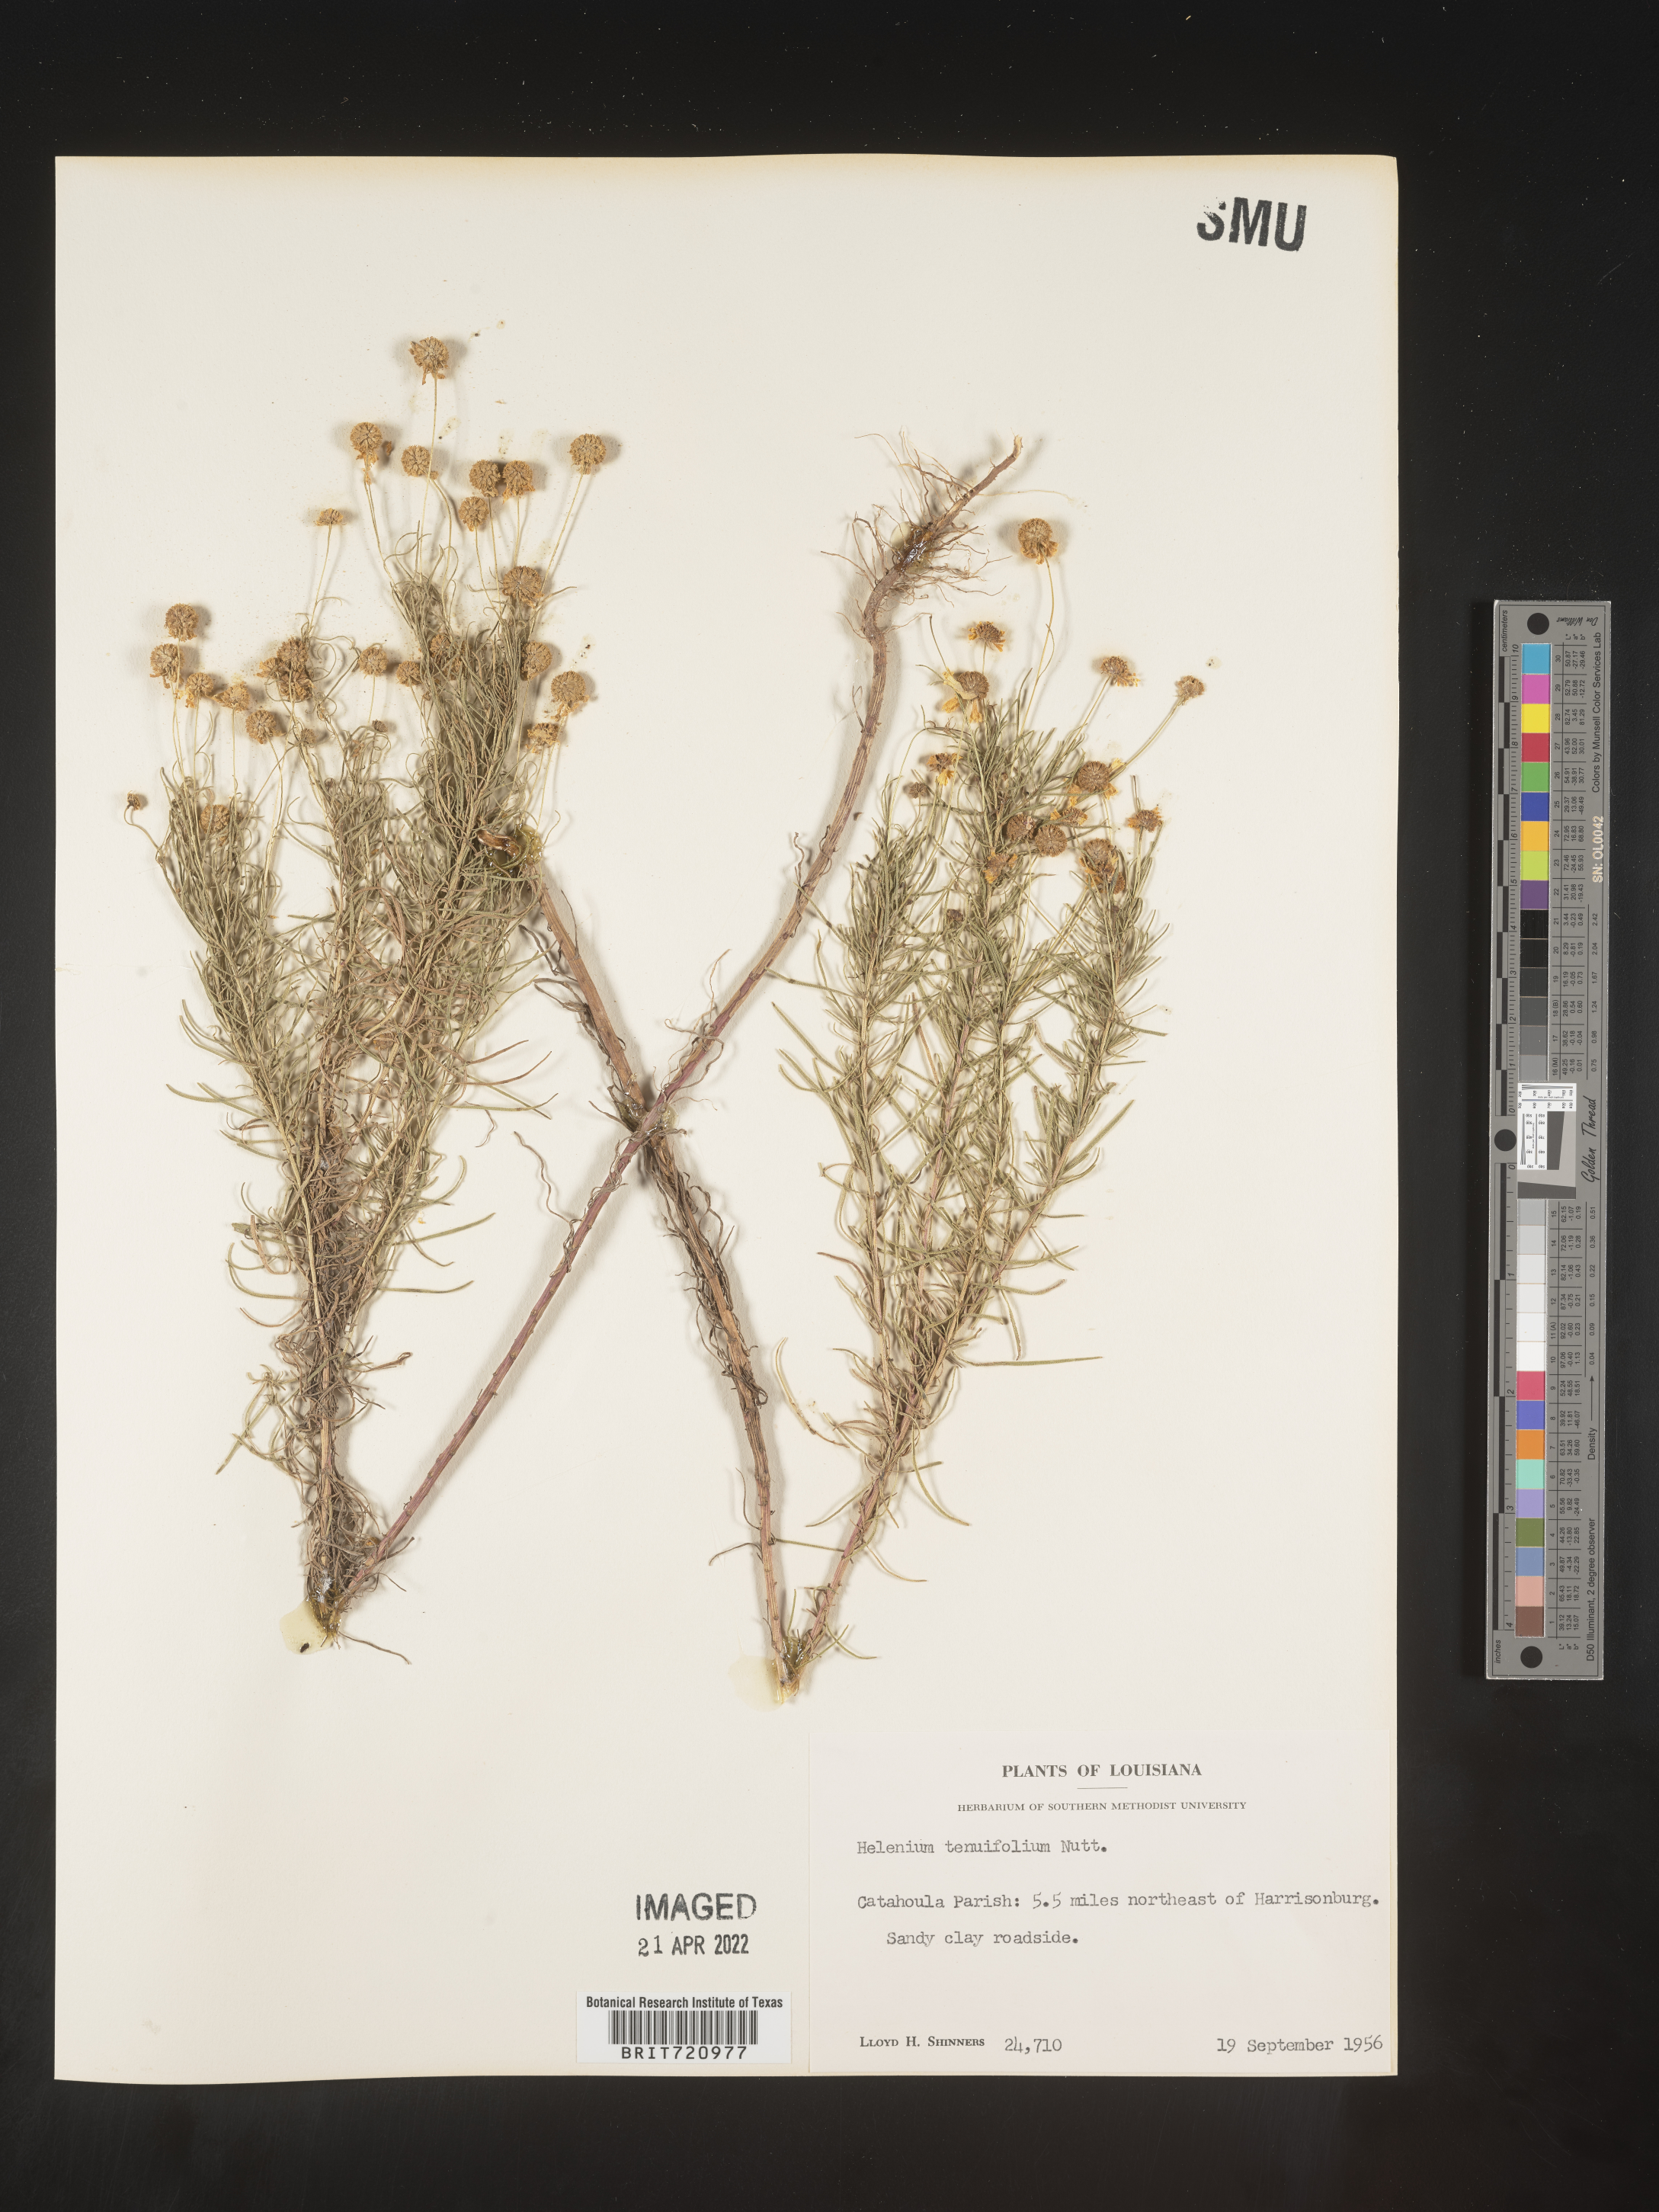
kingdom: Plantae
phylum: Tracheophyta
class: Magnoliopsida
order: Asterales
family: Asteraceae
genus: Helenium
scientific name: Helenium amarum
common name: Bitter sneezeweed
